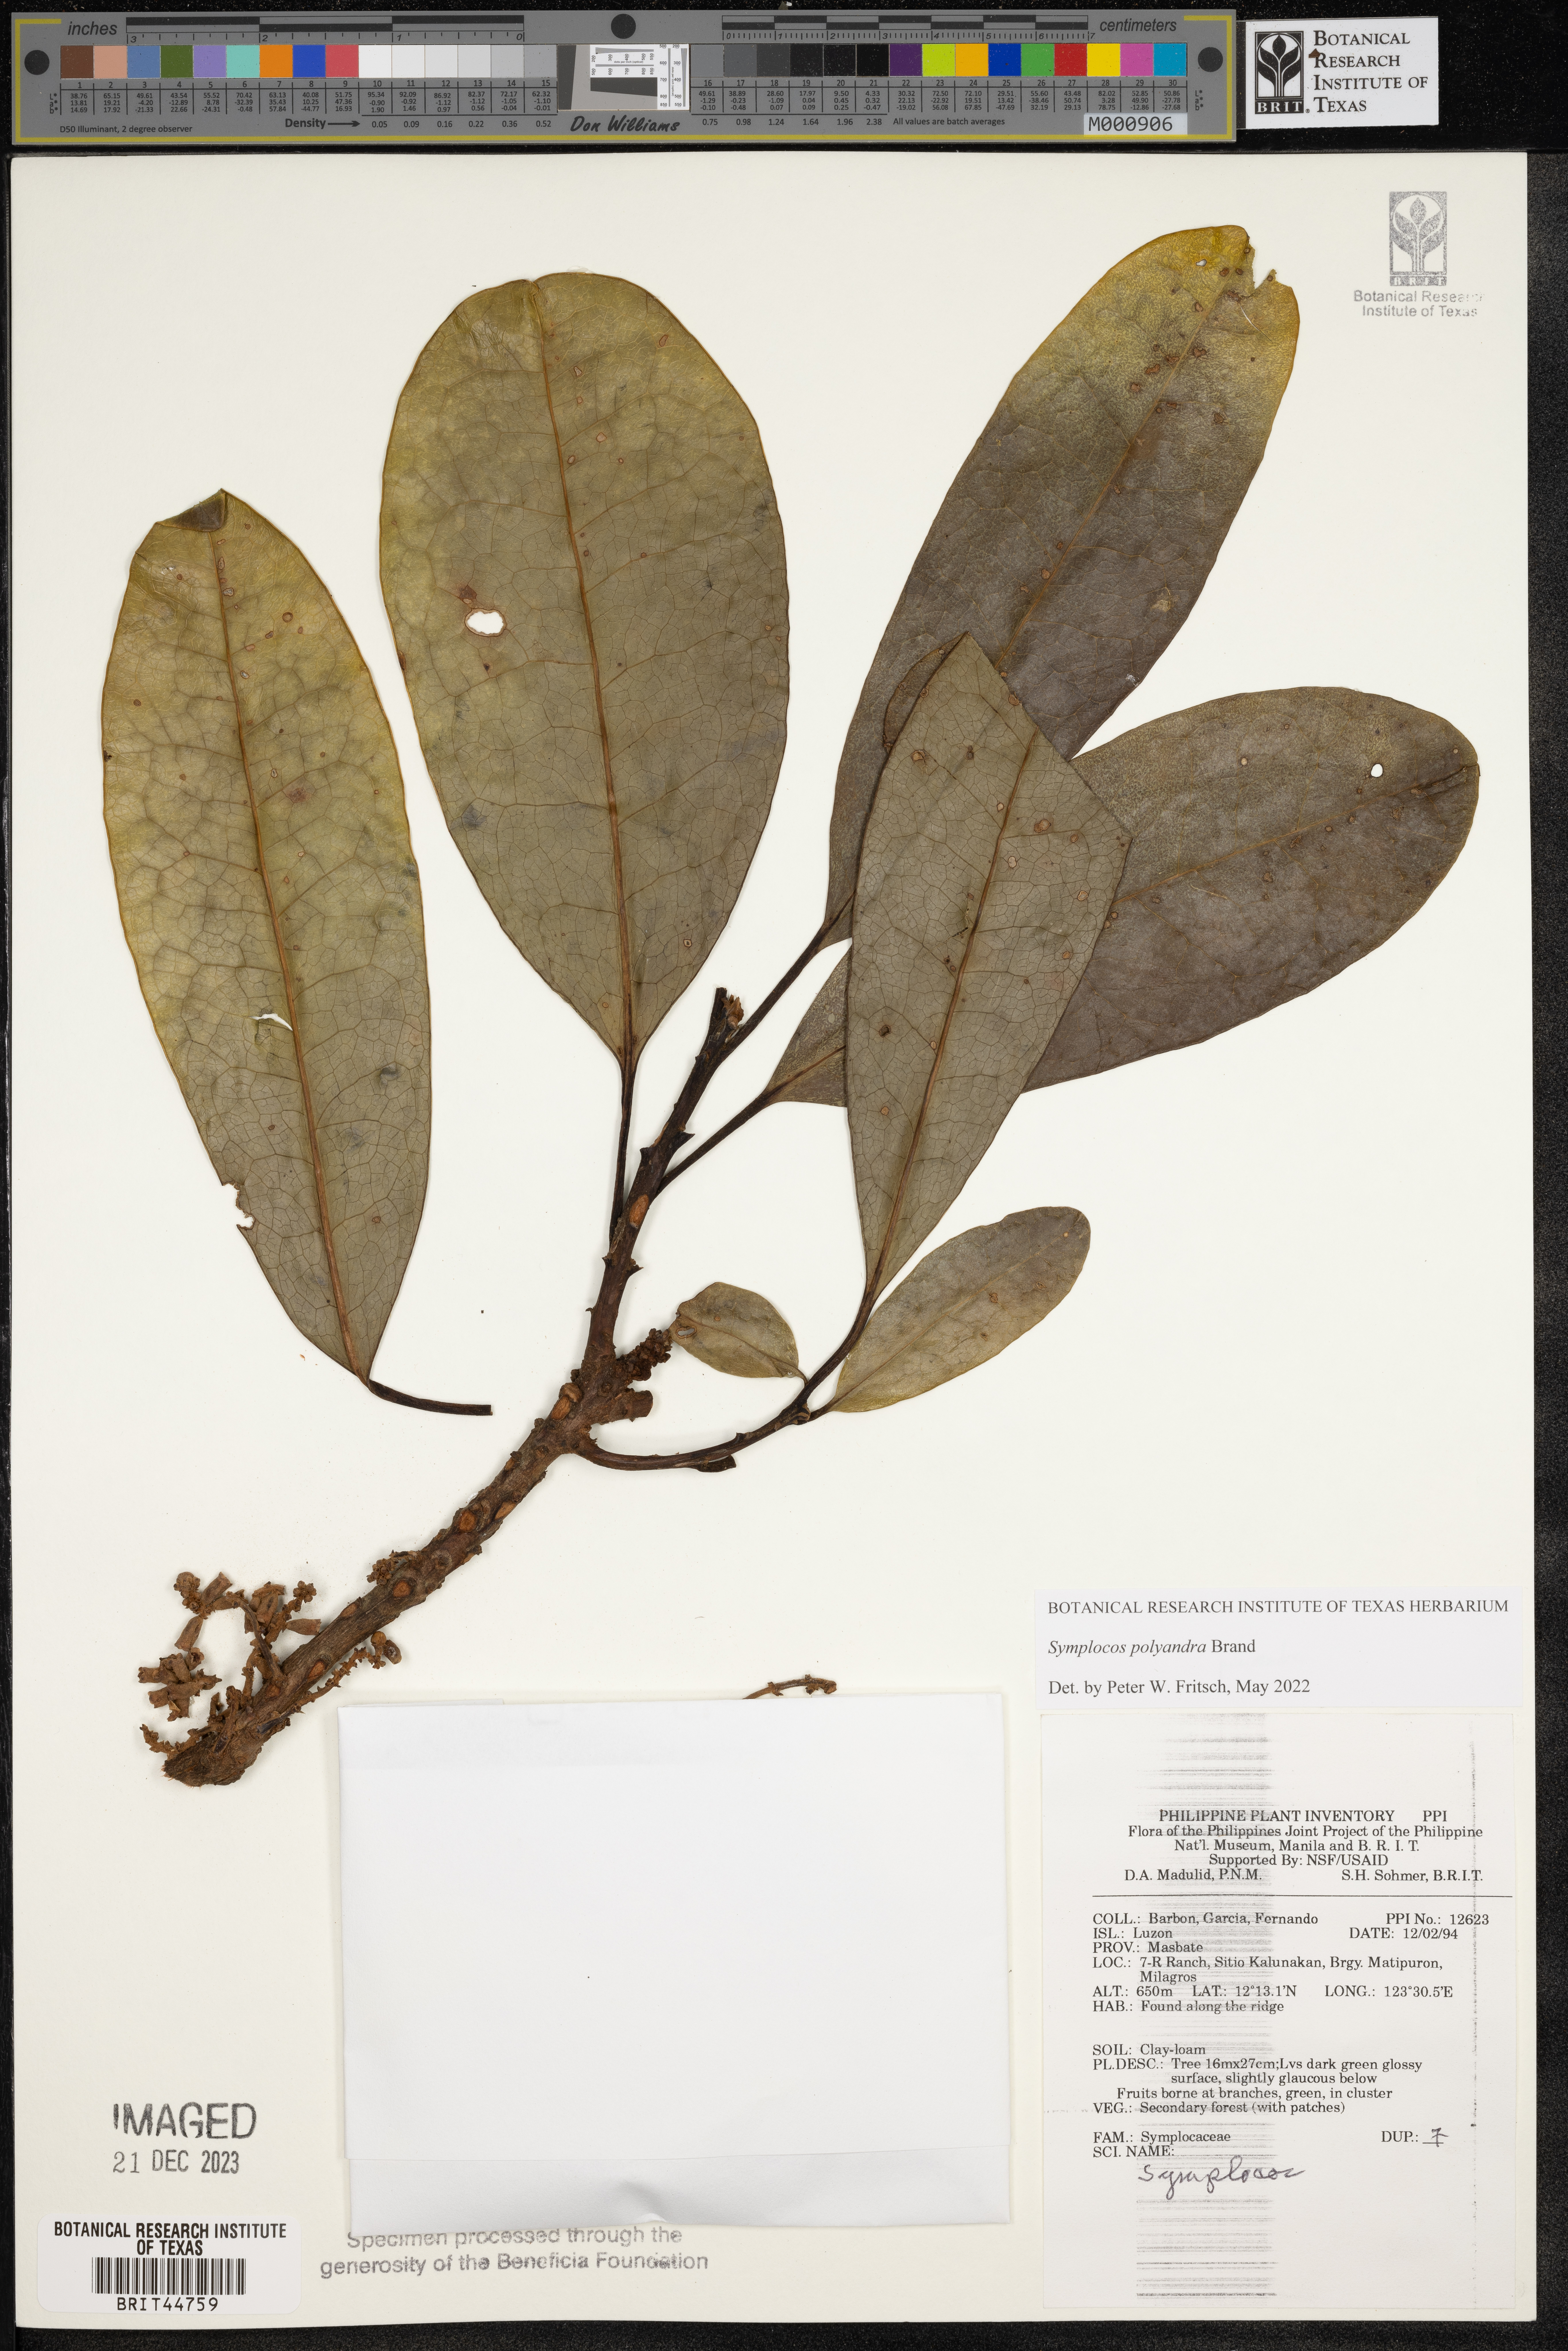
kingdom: Plantae
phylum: Tracheophyta
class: Magnoliopsida
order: Ericales
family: Symplocaceae
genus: Symplocos
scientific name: Symplocos
